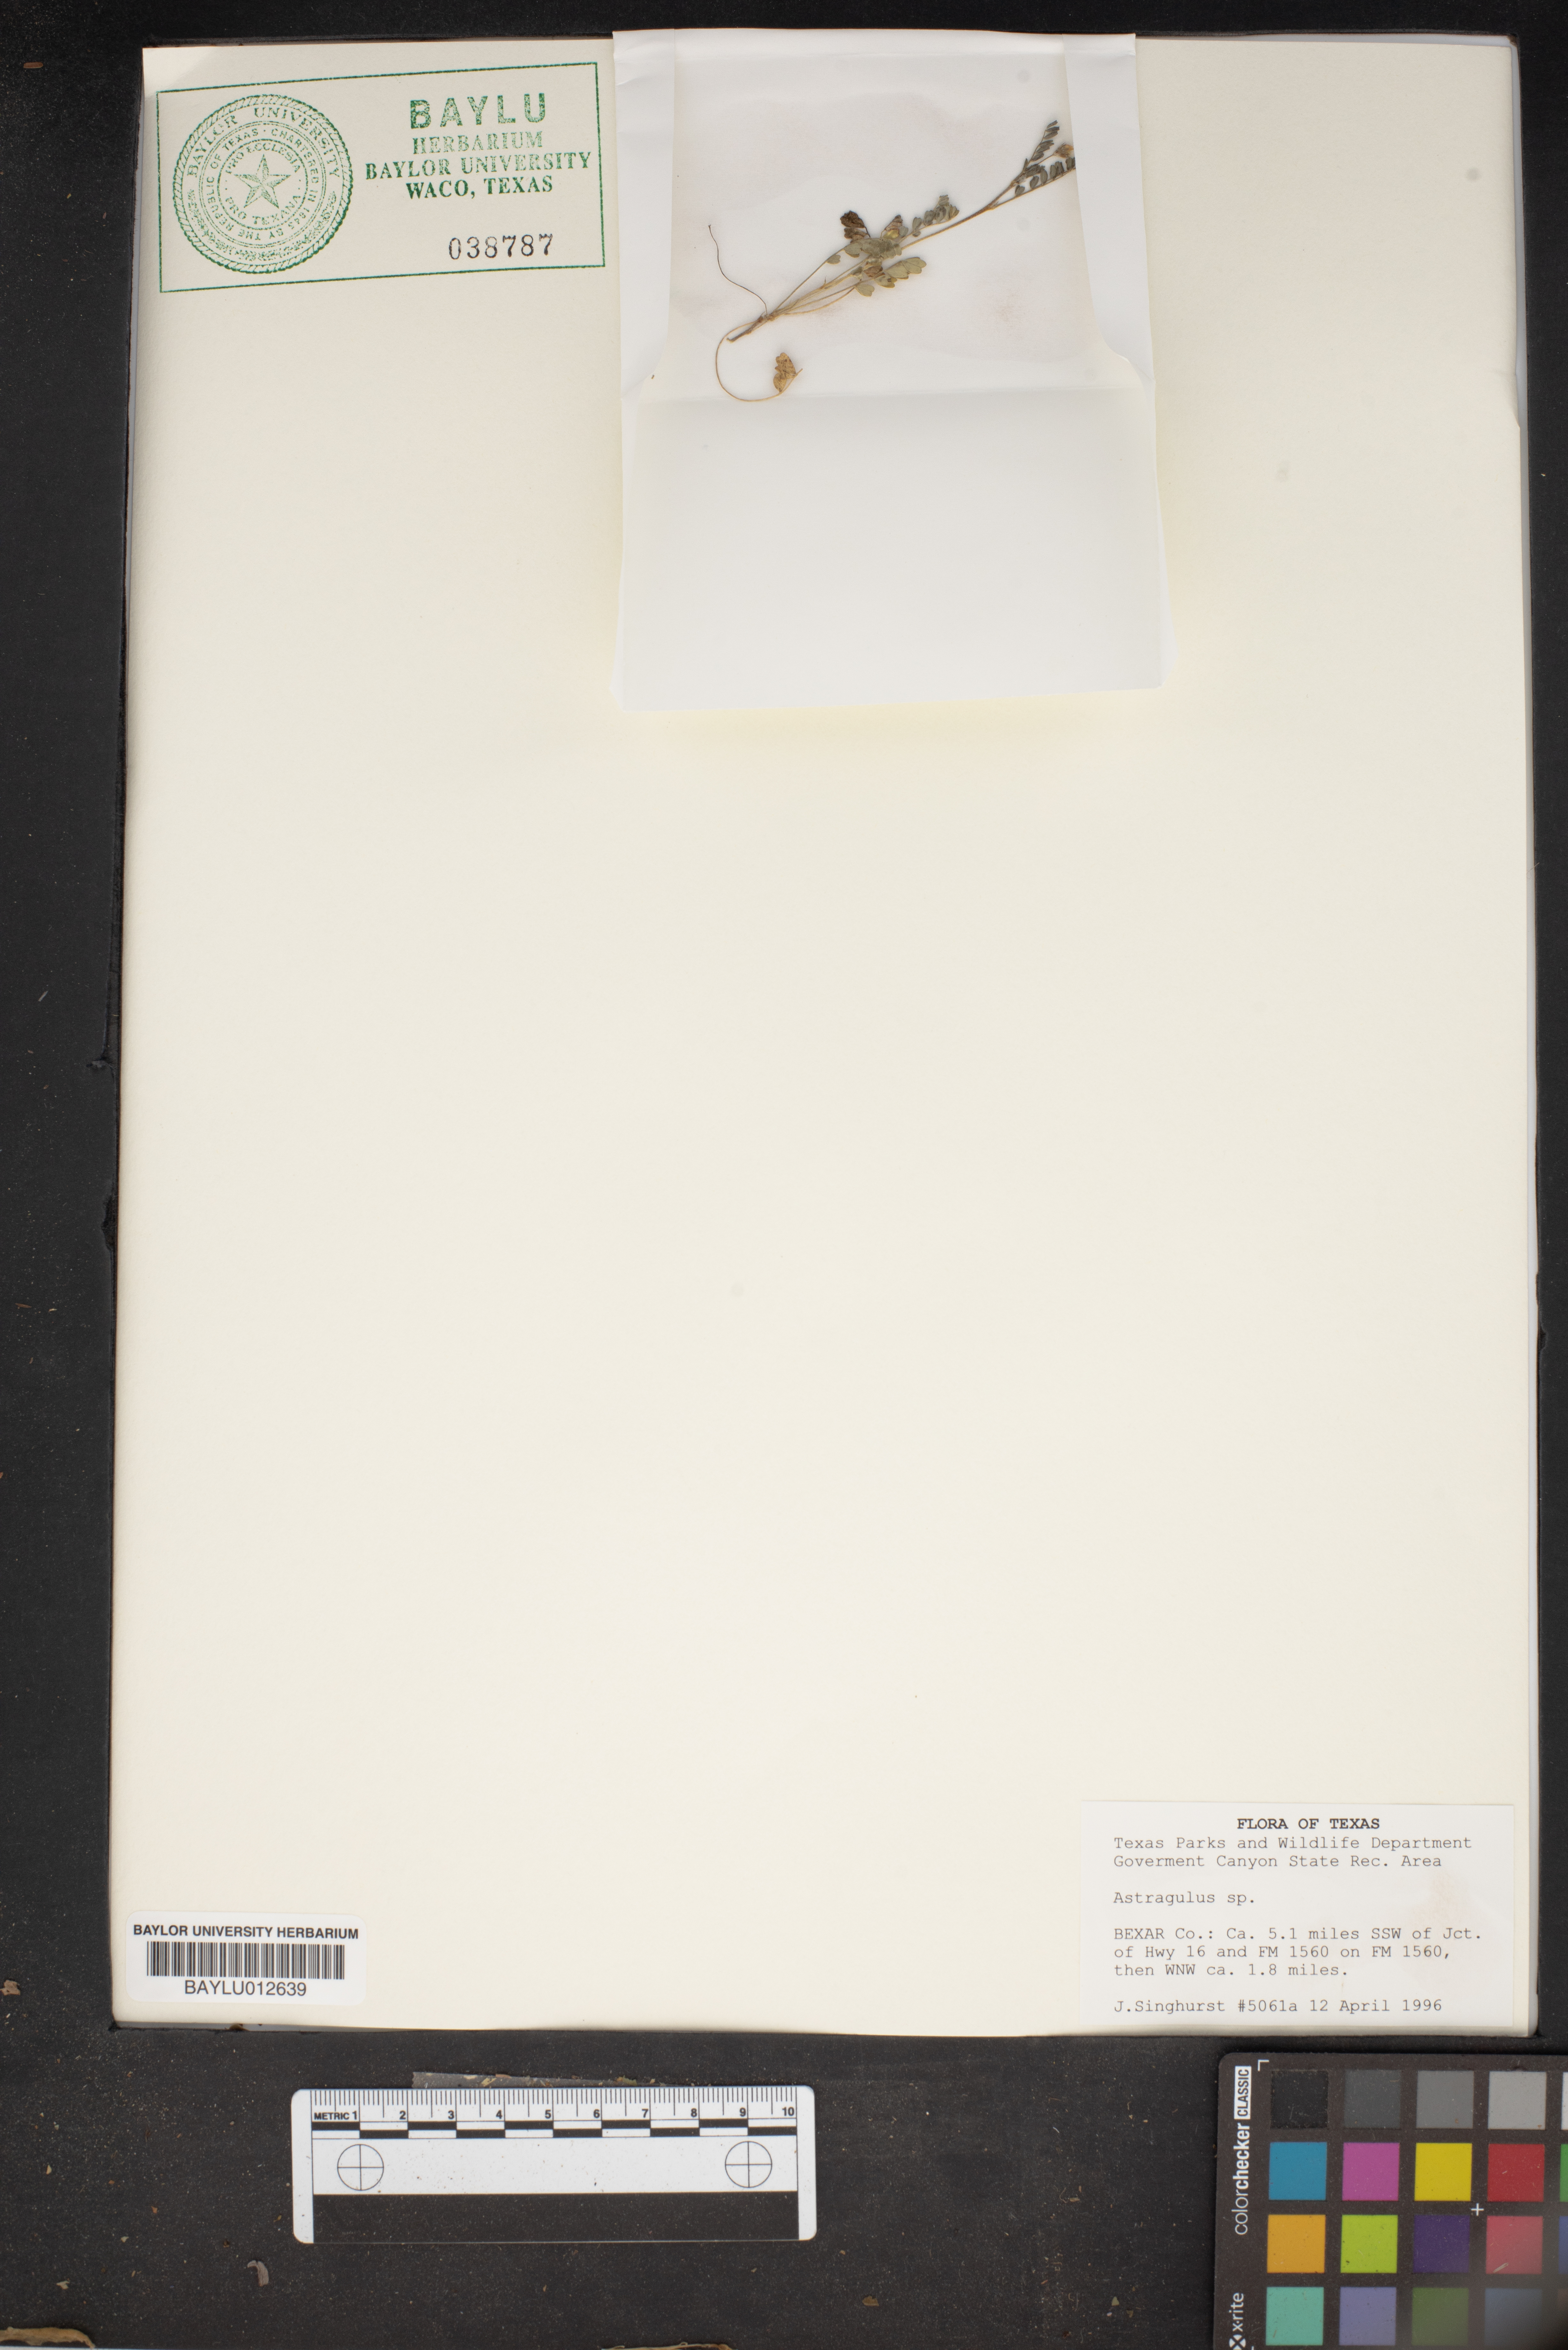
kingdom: Plantae
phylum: Tracheophyta
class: Magnoliopsida
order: Fabales
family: Fabaceae
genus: Astragalus
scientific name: Astragalus
